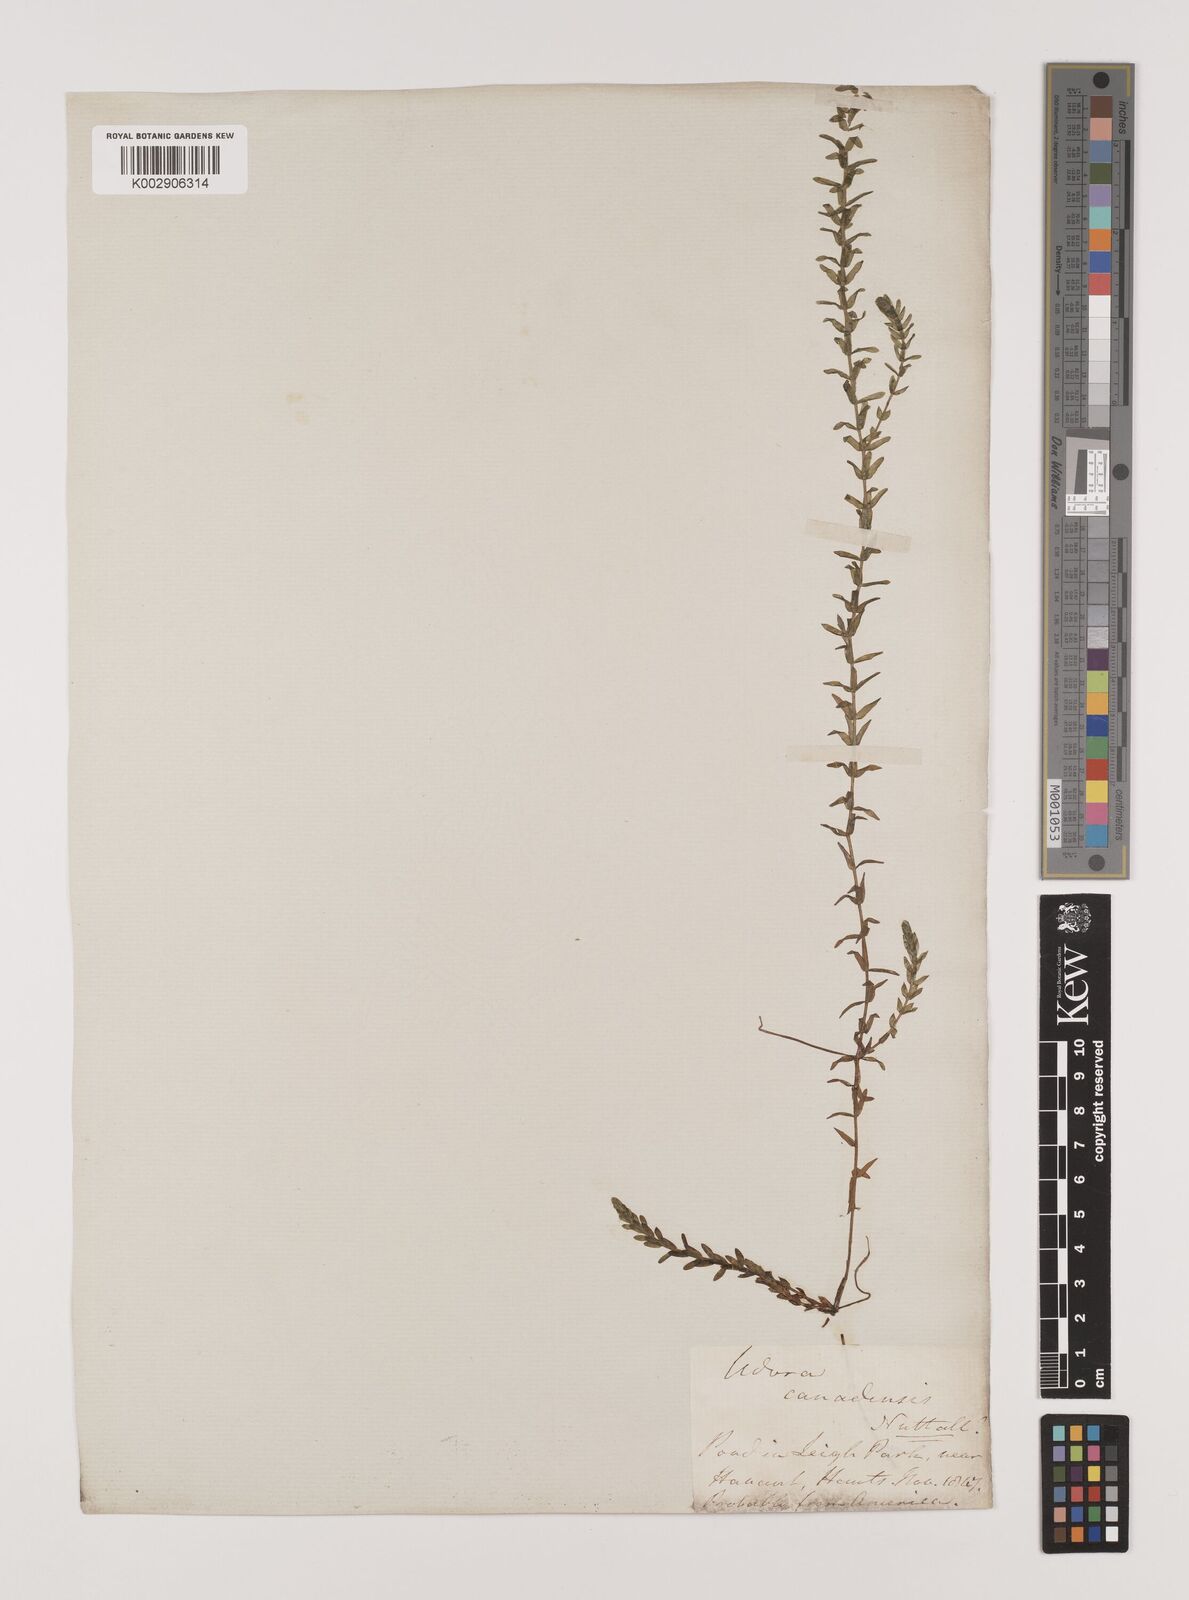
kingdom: Plantae
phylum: Tracheophyta
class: Liliopsida
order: Alismatales
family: Hydrocharitaceae
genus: Elodea
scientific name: Elodea canadensis
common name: Canadian waterweed
